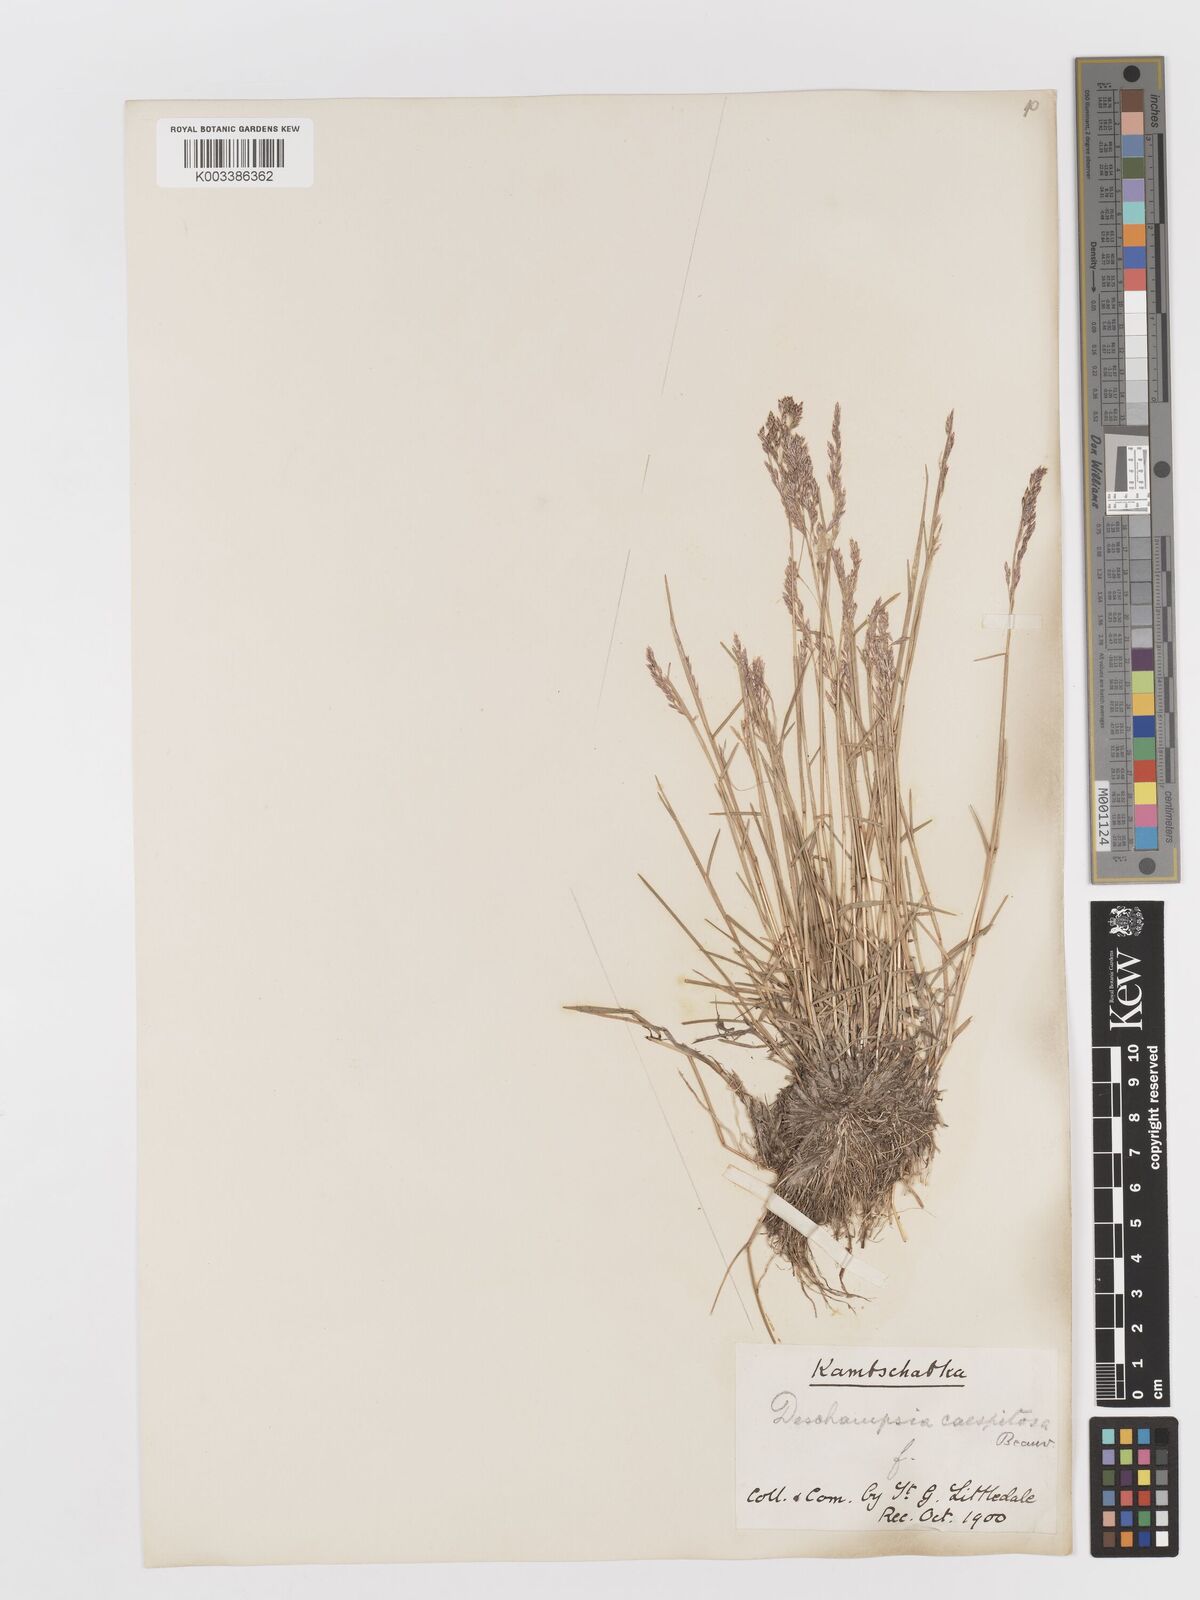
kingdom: Plantae
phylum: Tracheophyta
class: Liliopsida
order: Poales
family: Poaceae
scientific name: Poaceae
